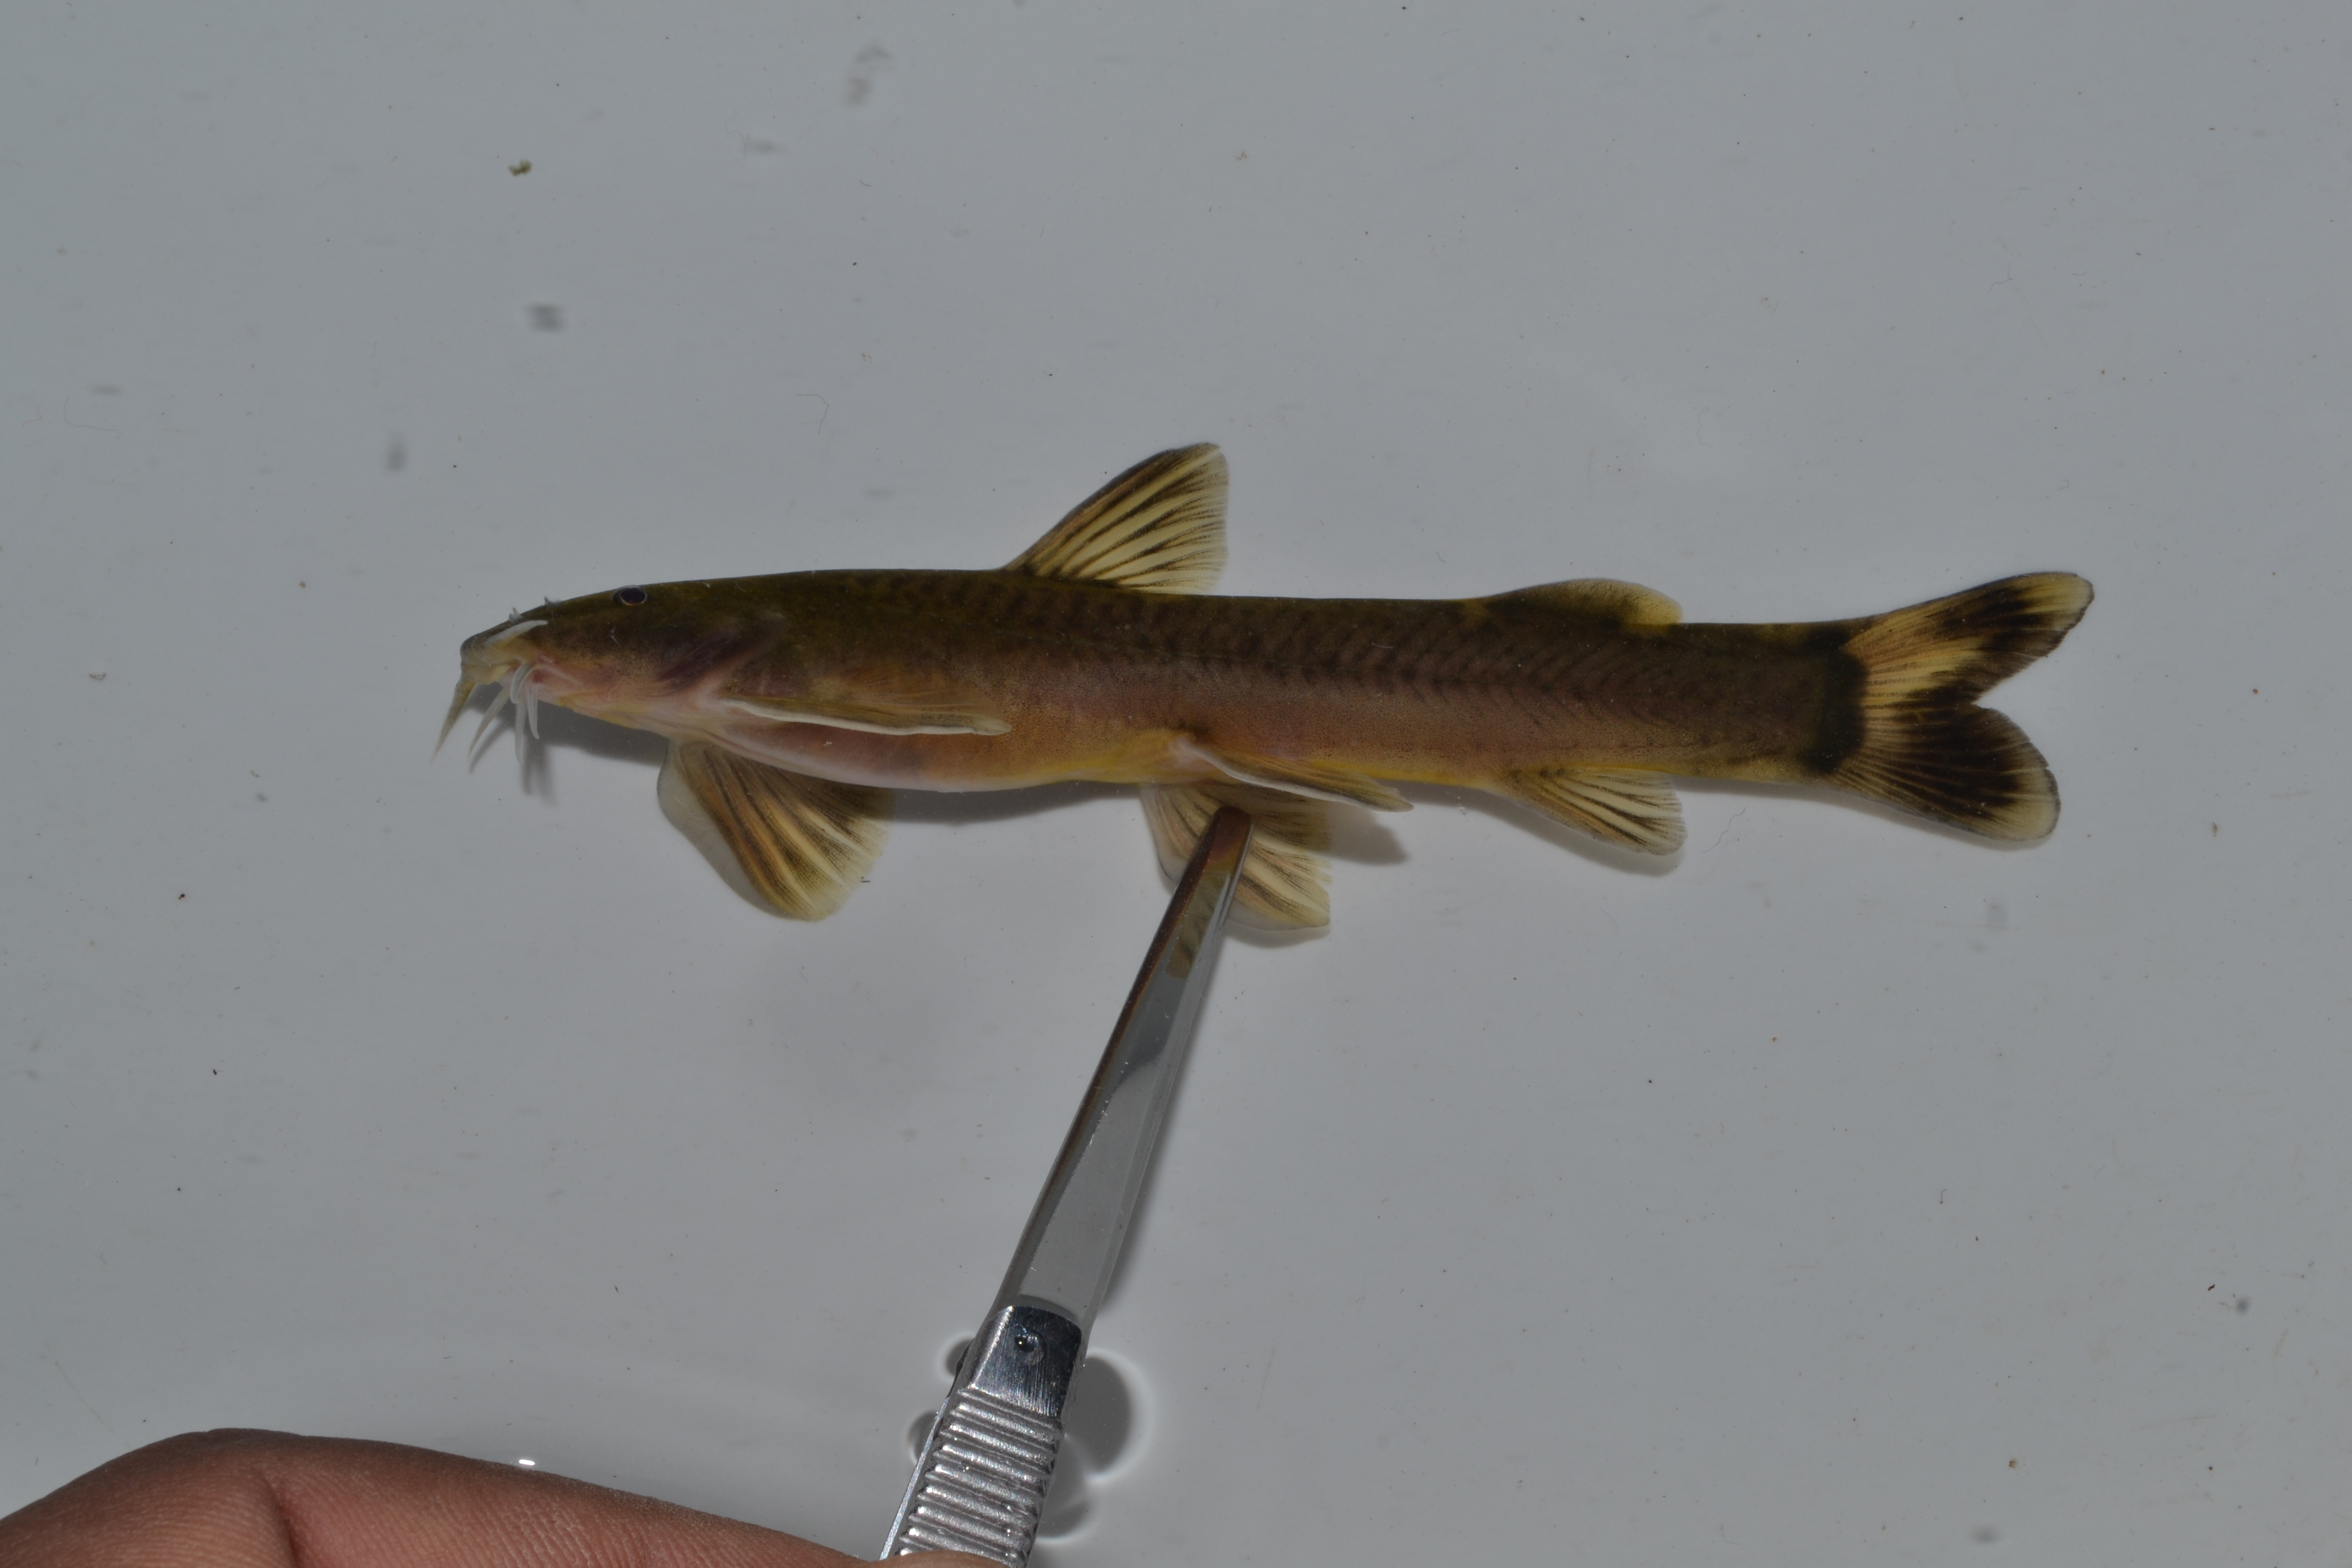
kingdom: Animalia
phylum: Chordata
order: Siluriformes
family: Amphiliidae
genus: Amphilius
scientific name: Amphilius natalensis
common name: Natal mountain catfish
